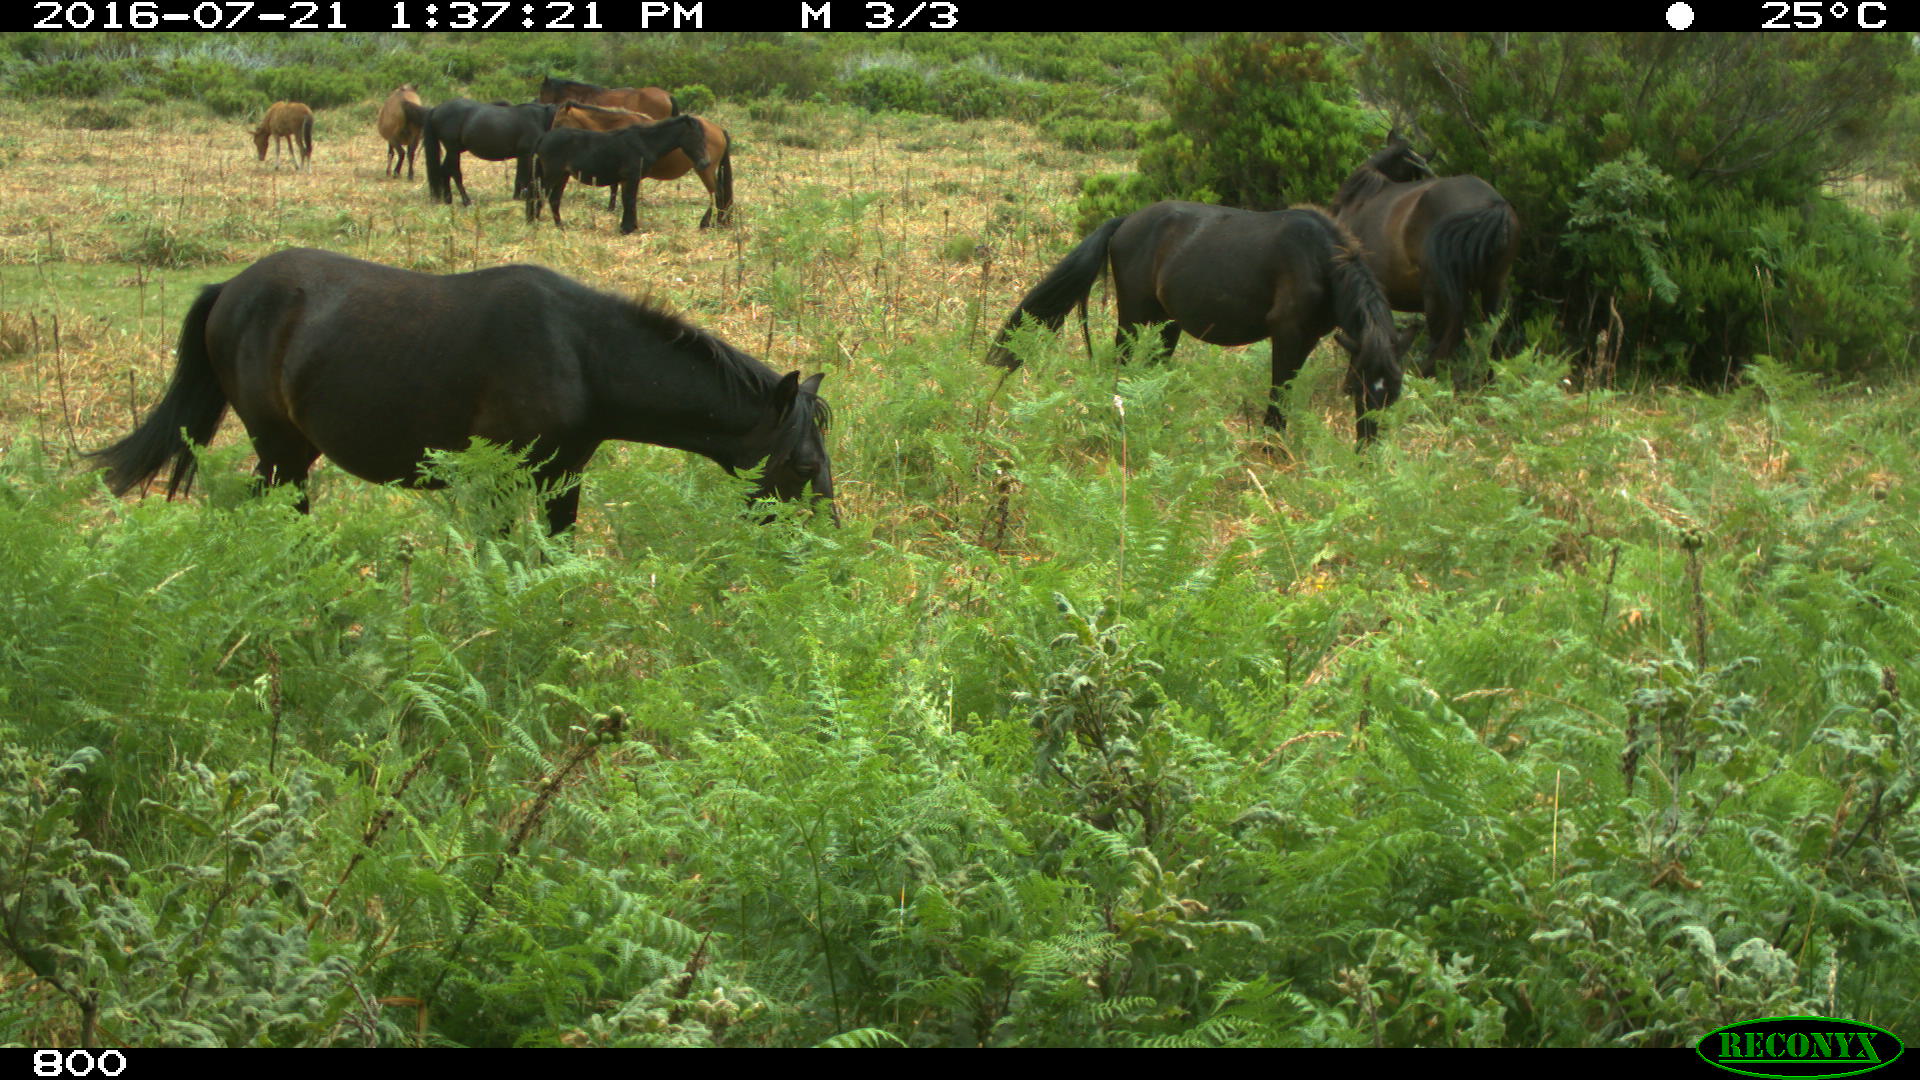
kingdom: Animalia
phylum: Chordata
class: Mammalia
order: Perissodactyla
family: Equidae
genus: Equus
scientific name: Equus caballus
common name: Horse
